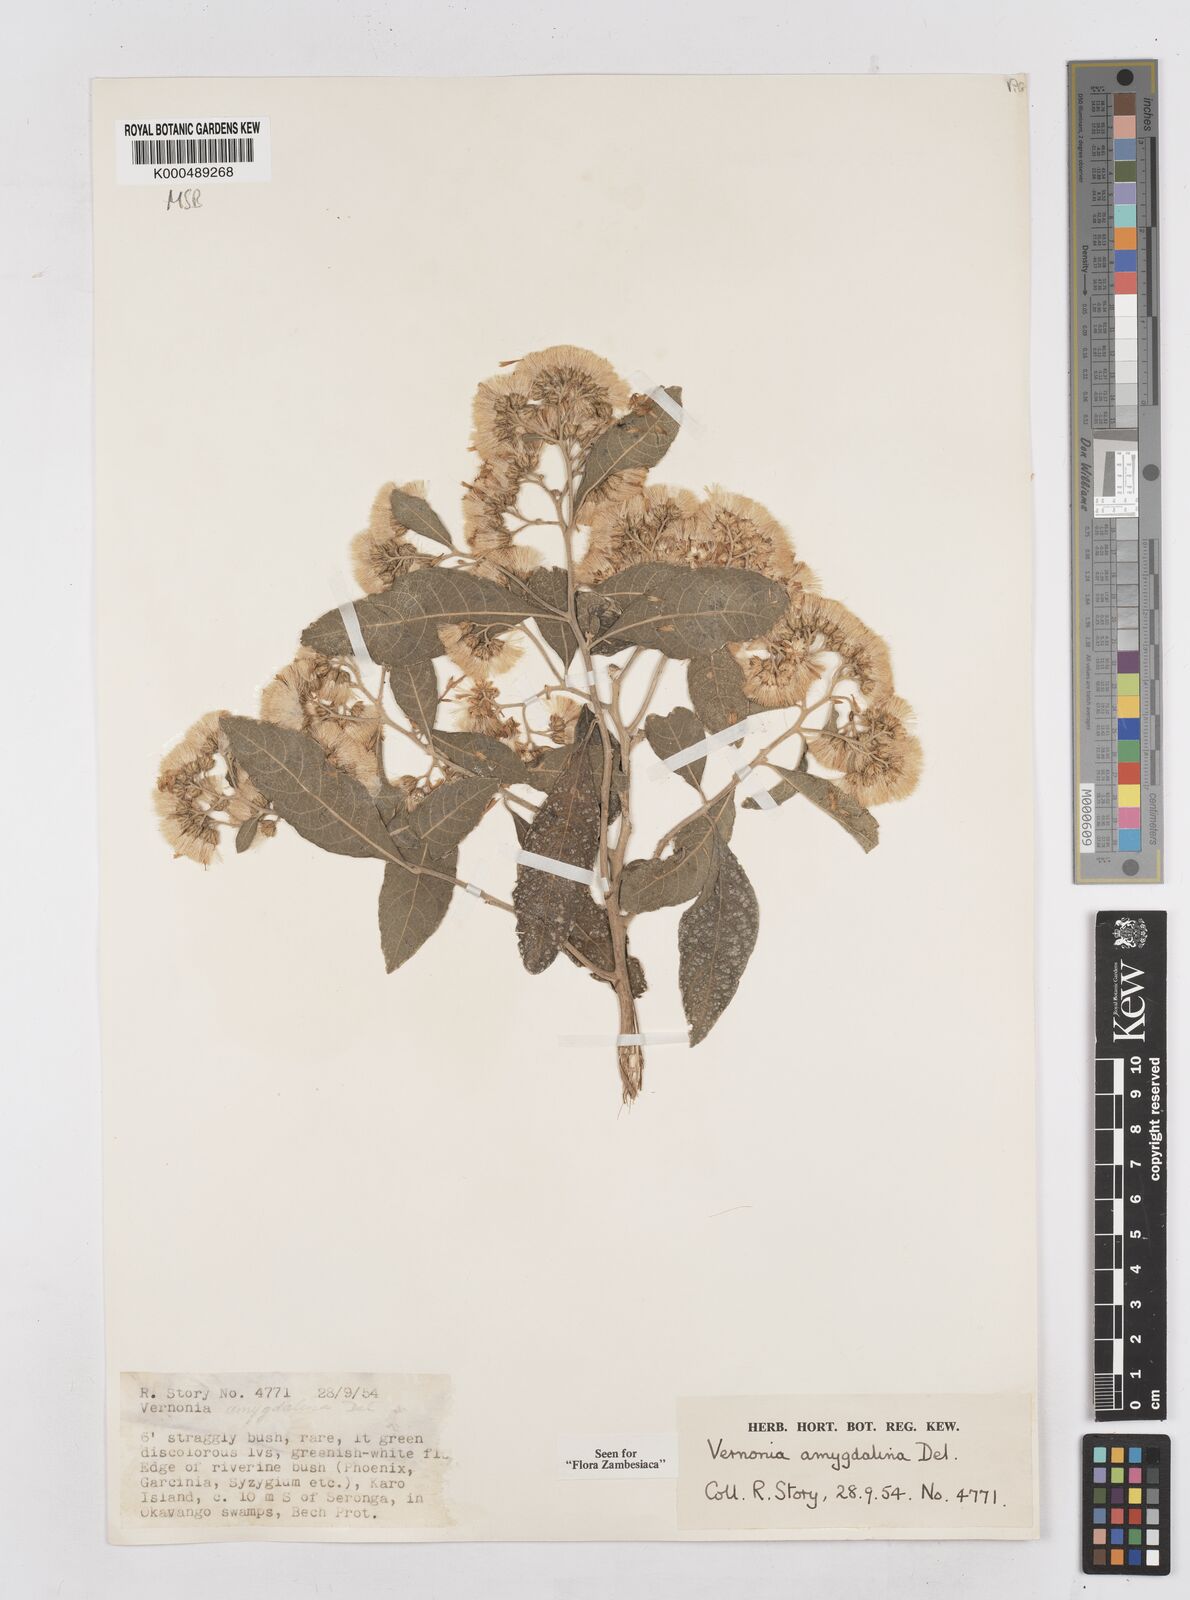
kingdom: Plantae
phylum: Tracheophyta
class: Magnoliopsida
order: Asterales
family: Asteraceae
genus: Gymnanthemum
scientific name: Gymnanthemum amygdalinum
